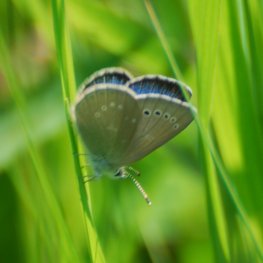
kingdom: Animalia
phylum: Arthropoda
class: Insecta
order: Lepidoptera
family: Lycaenidae
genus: Glaucopsyche
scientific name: Glaucopsyche lygdamus
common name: Silvery Blue
